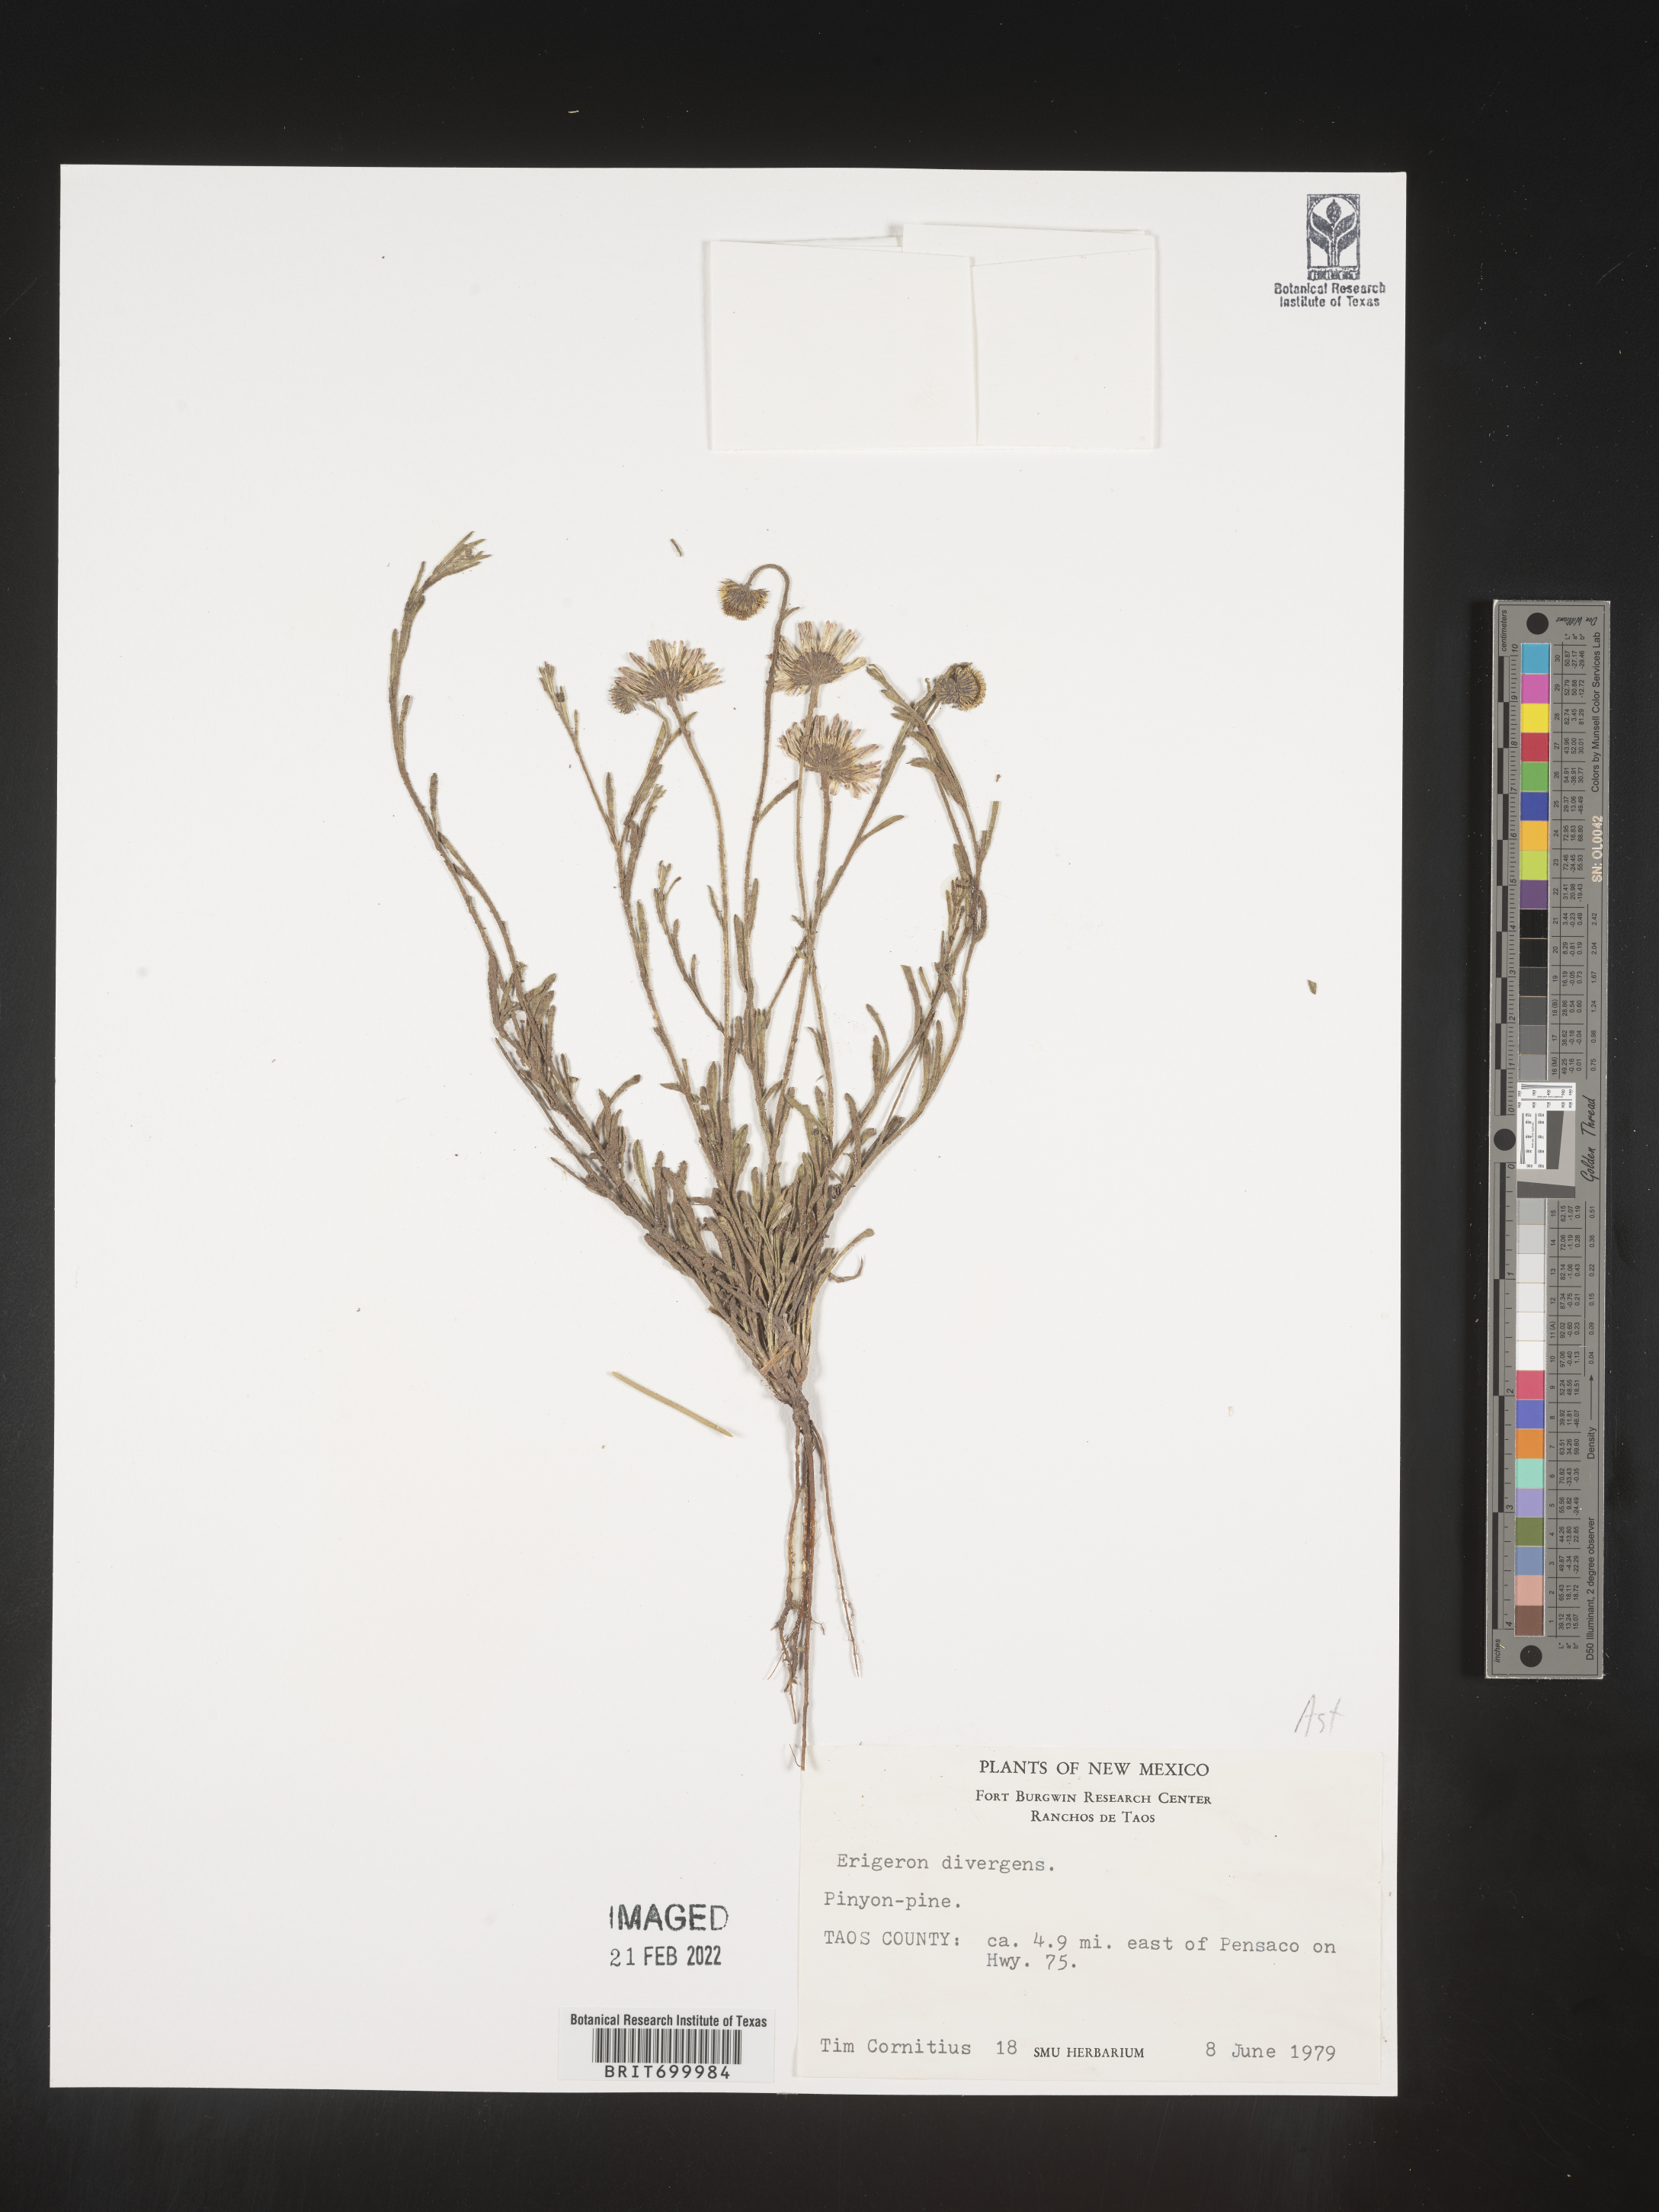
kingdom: Plantae
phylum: Tracheophyta
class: Magnoliopsida
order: Asterales
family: Asteraceae
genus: Erigeron
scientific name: Erigeron tracyi
